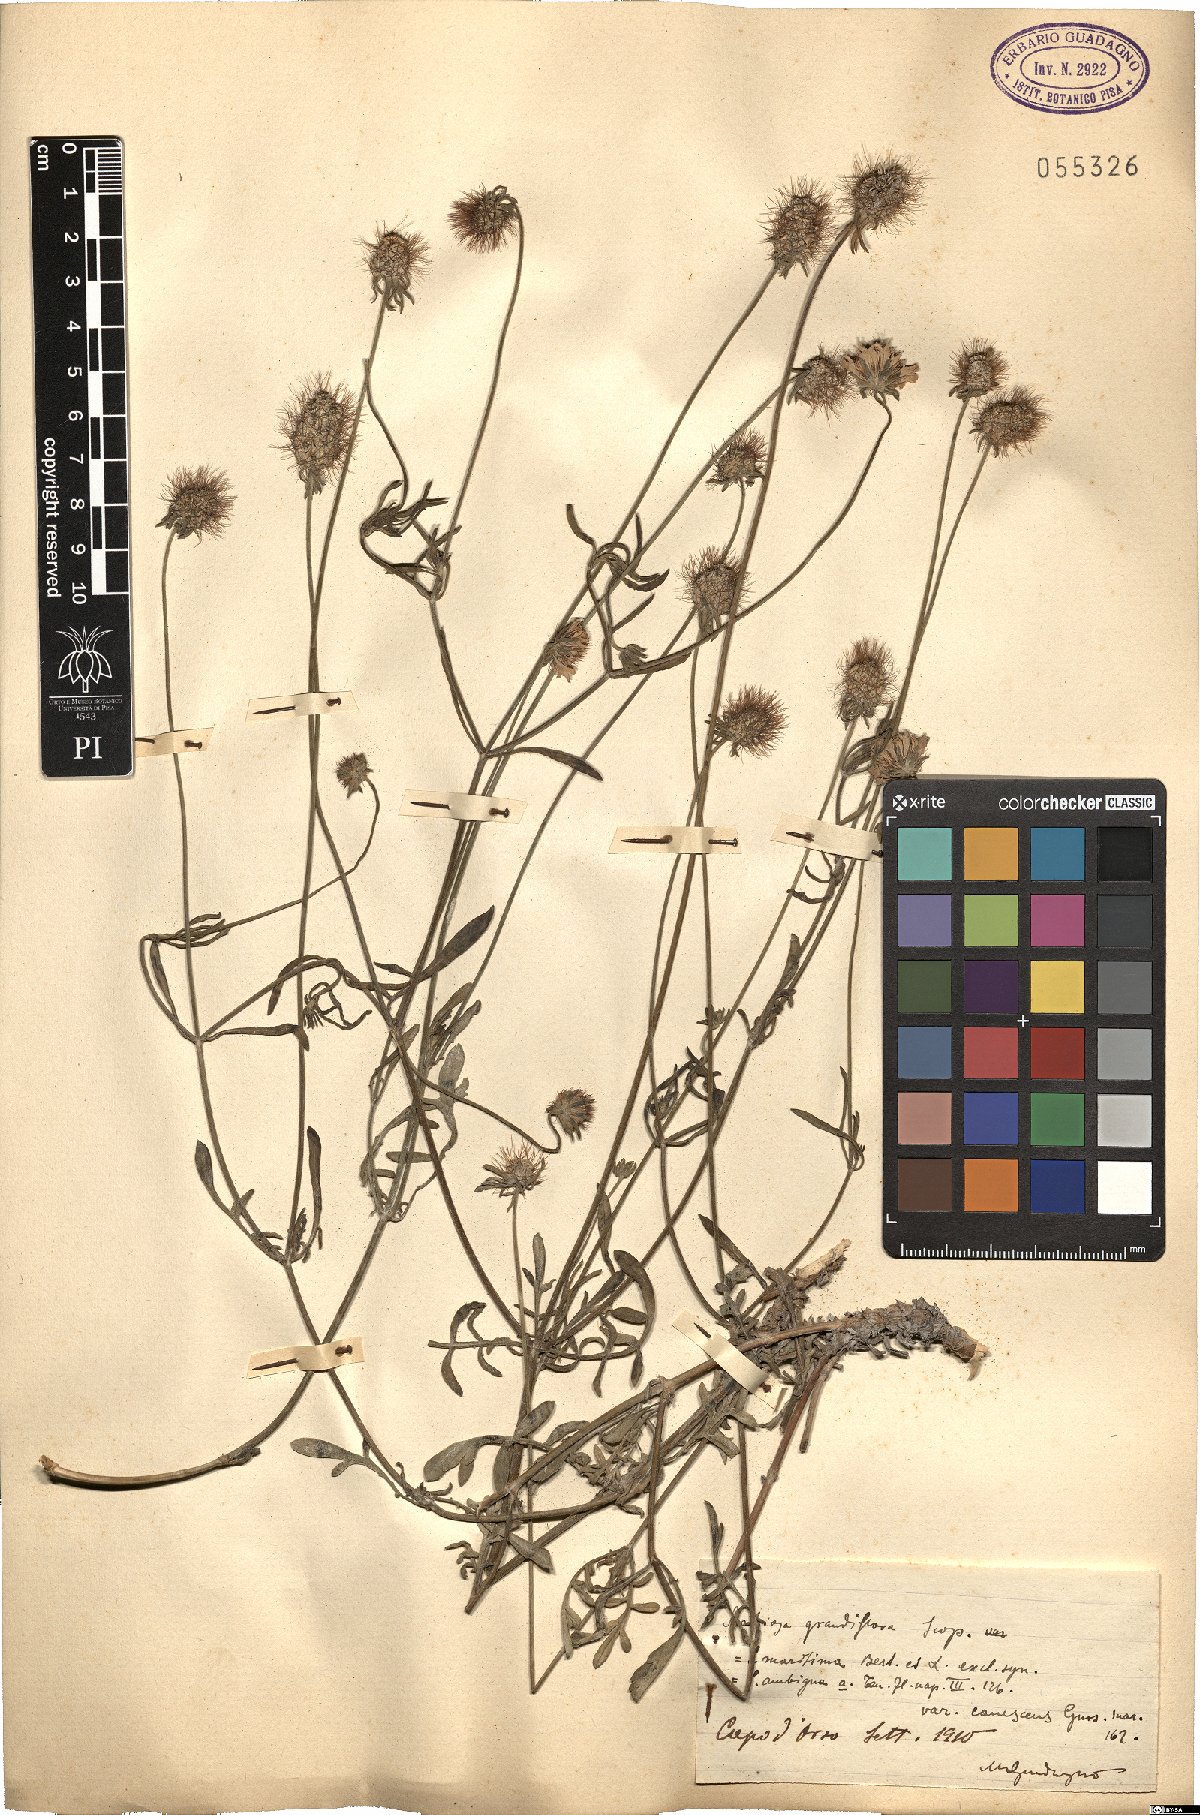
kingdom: Plantae
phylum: Tracheophyta
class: Magnoliopsida
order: Dipsacales
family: Caprifoliaceae
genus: Sixalix
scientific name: Sixalix maritima
